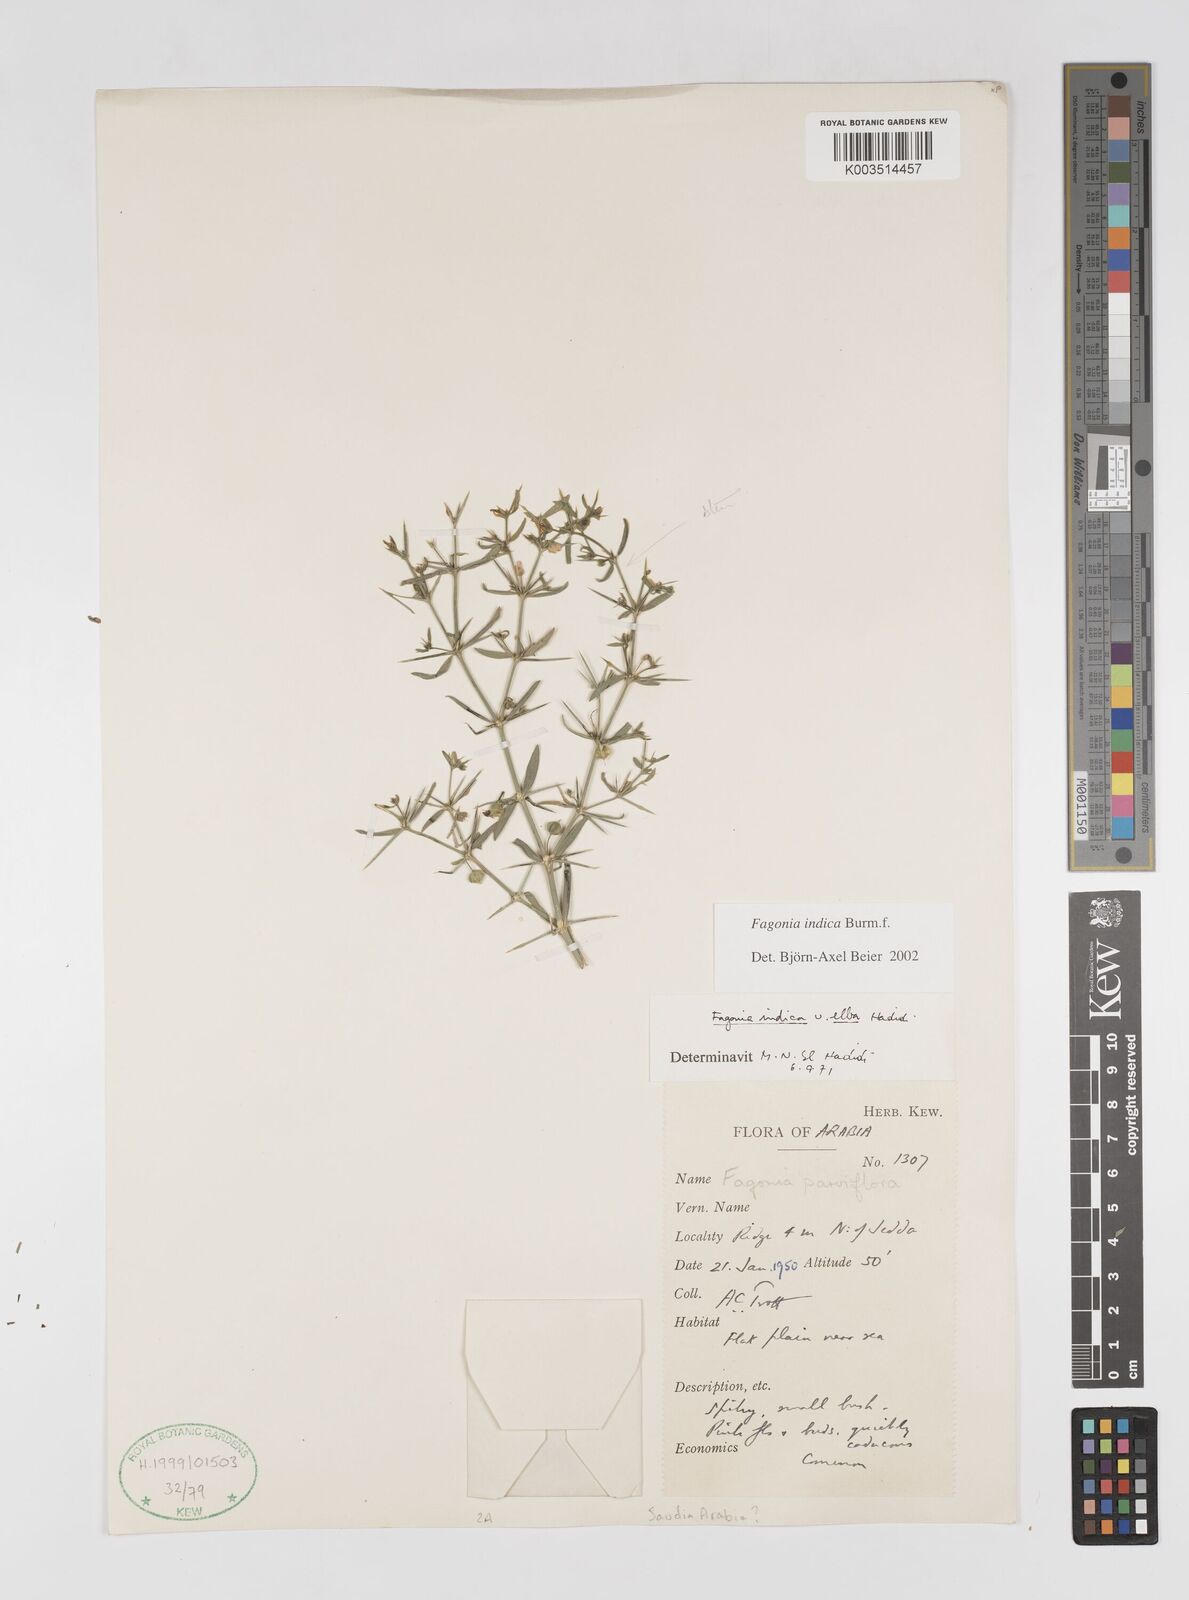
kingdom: Plantae
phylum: Tracheophyta
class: Magnoliopsida
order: Zygophyllales
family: Zygophyllaceae
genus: Fagonia
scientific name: Fagonia indica
